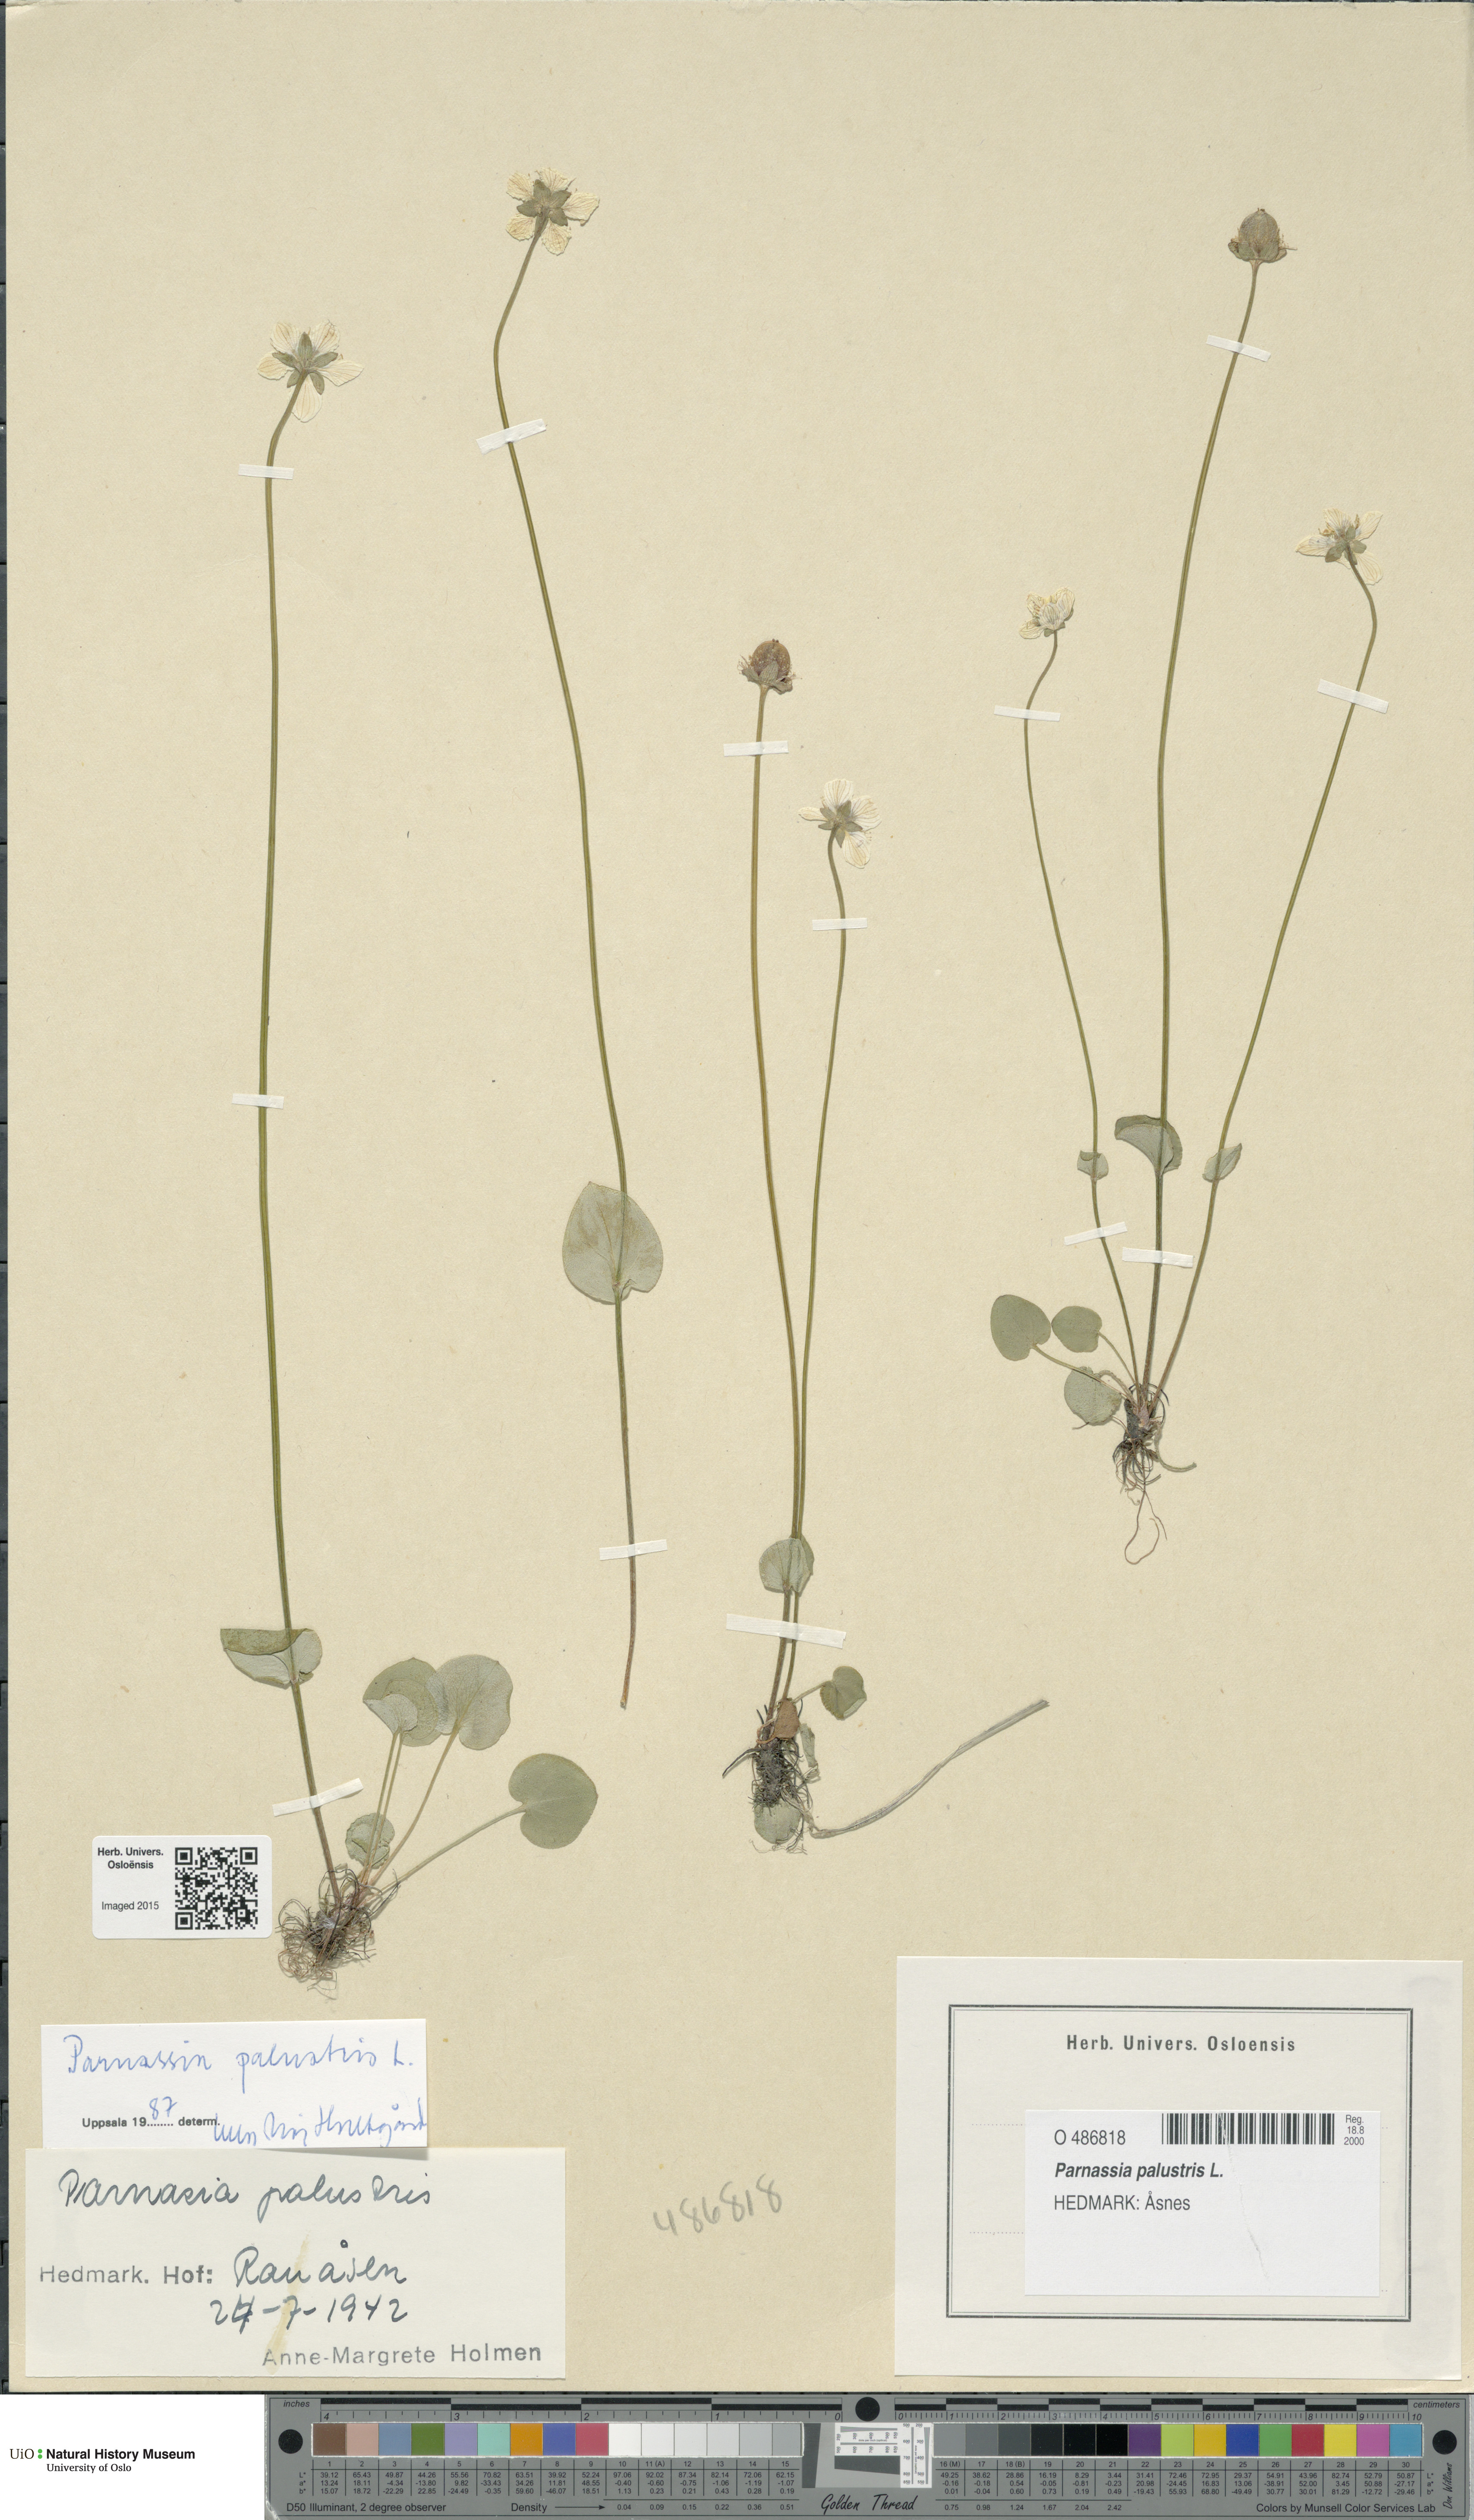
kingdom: Plantae
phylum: Tracheophyta
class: Magnoliopsida
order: Celastrales
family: Parnassiaceae
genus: Parnassia
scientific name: Parnassia palustris
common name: Grass-of-parnassus
